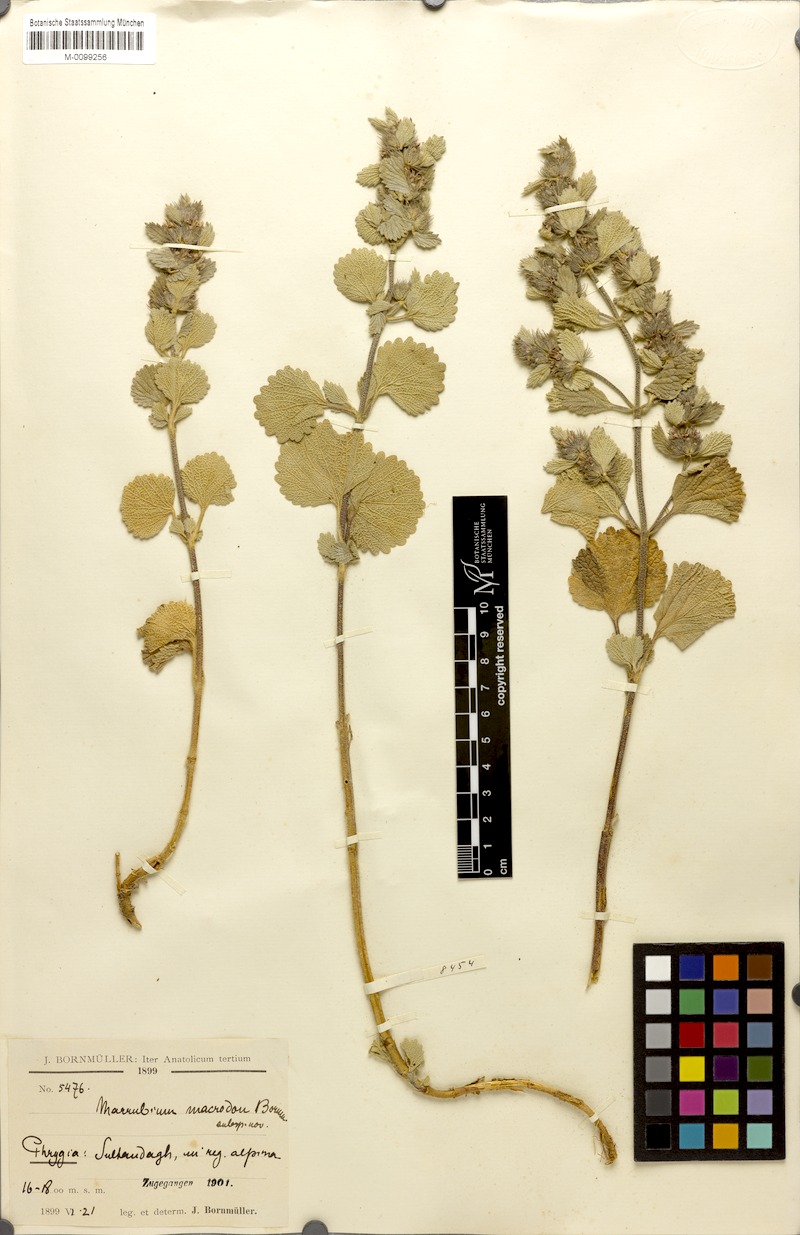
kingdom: Plantae
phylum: Tracheophyta
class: Magnoliopsida
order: Lamiales
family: Lamiaceae
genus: Marrubium
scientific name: Marrubium astracanicum
